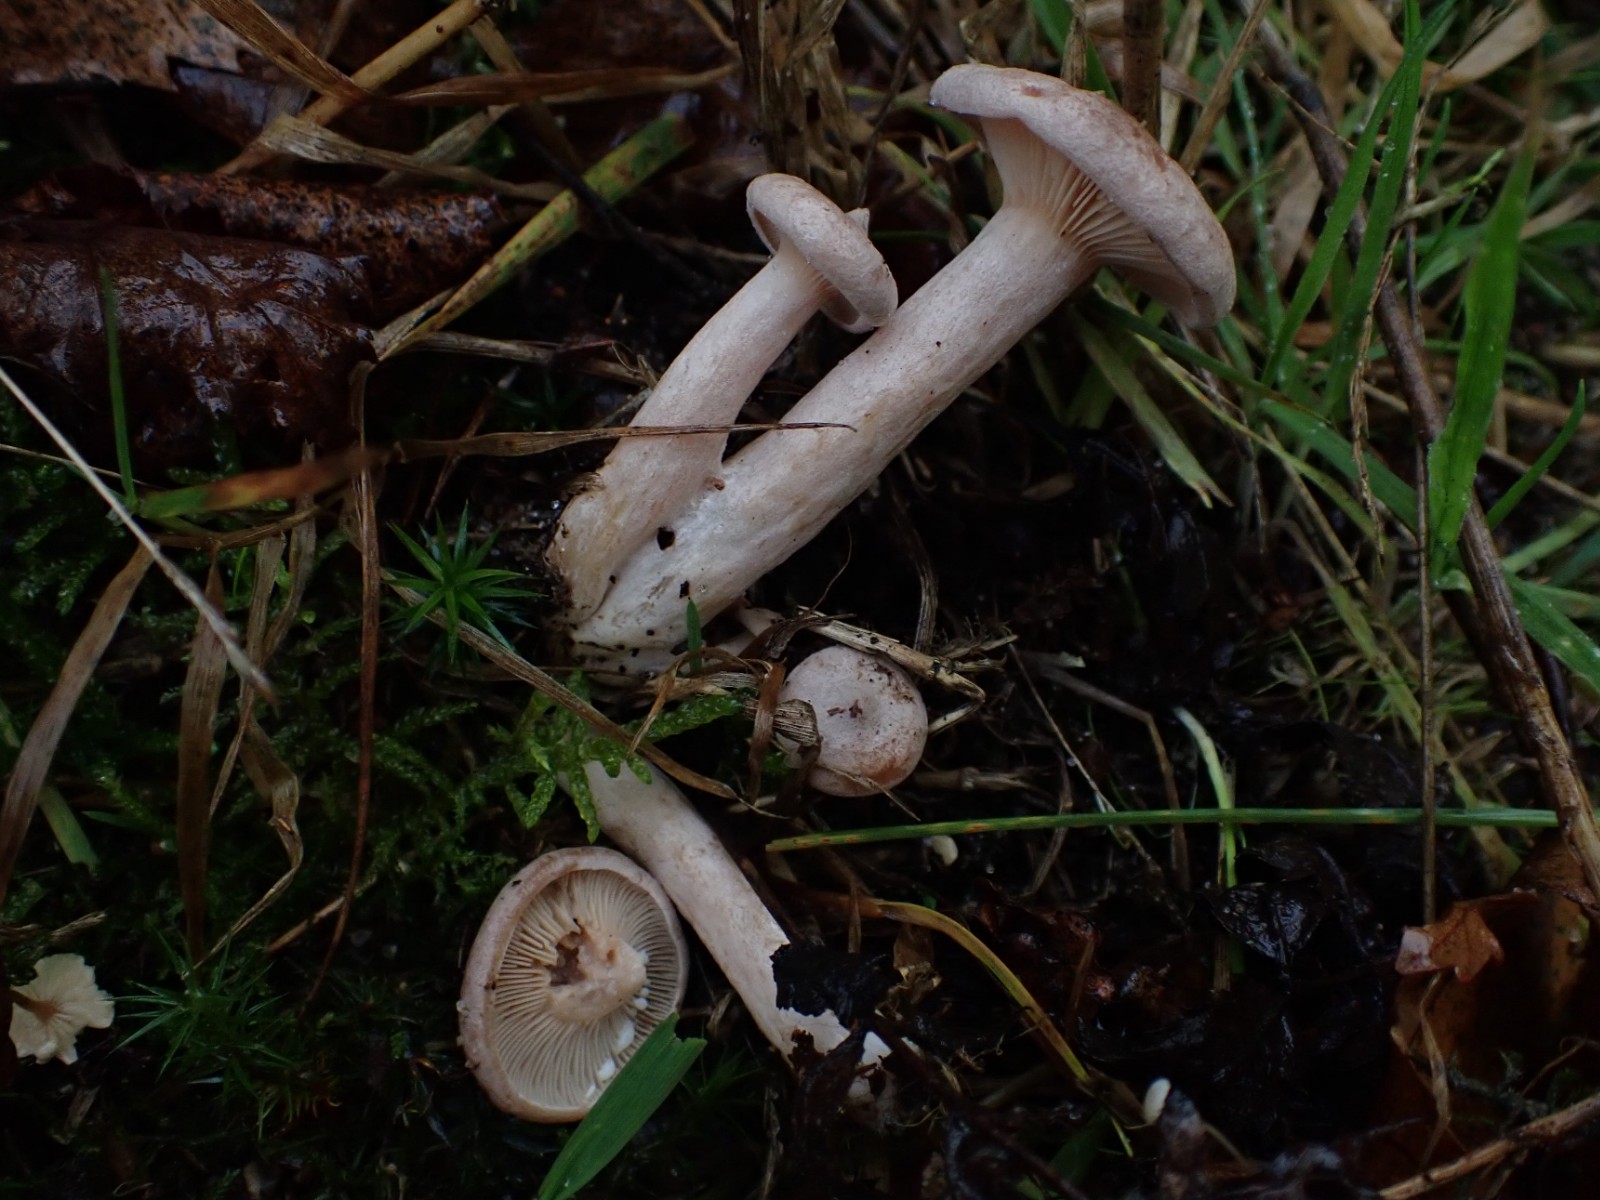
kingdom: Fungi
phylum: Basidiomycota
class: Agaricomycetes
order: Russulales
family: Russulaceae
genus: Lactarius
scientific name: Lactarius quietus
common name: ege-mælkehat
